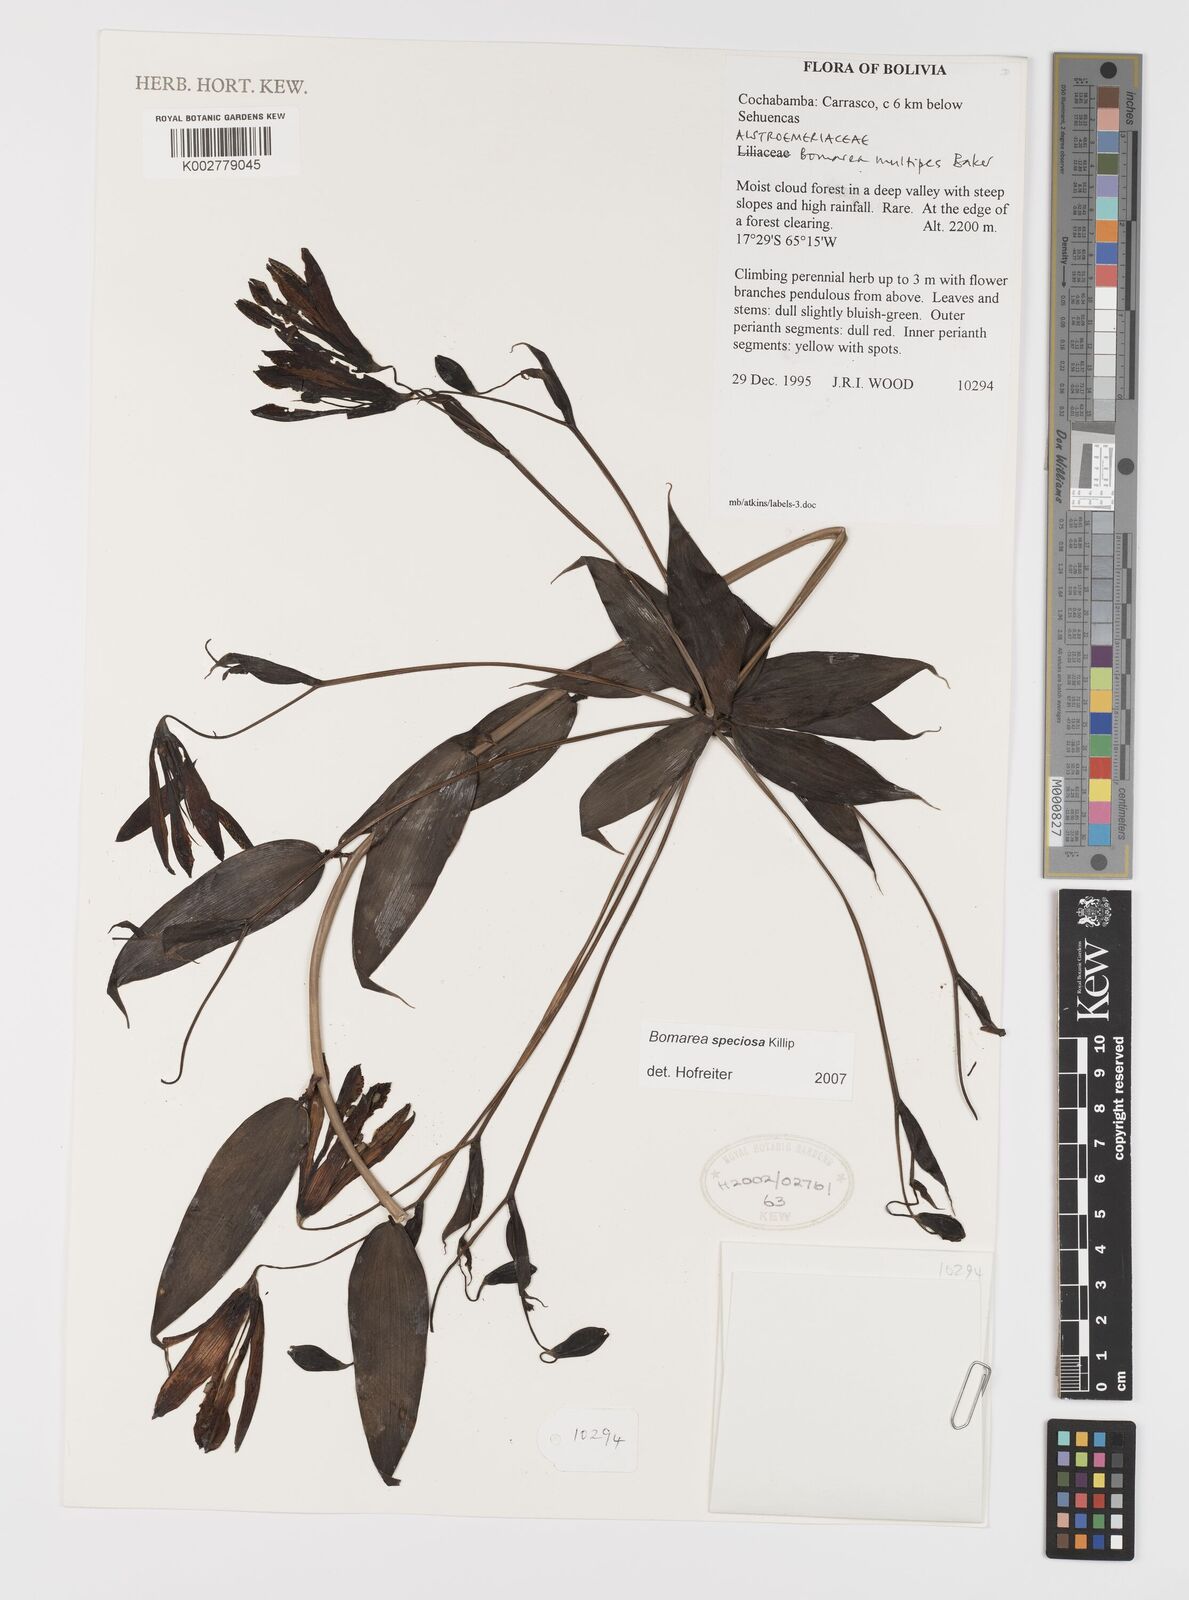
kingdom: Plantae
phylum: Tracheophyta
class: Liliopsida
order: Liliales
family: Alstroemeriaceae
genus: Bomarea
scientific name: Bomarea speciosa
